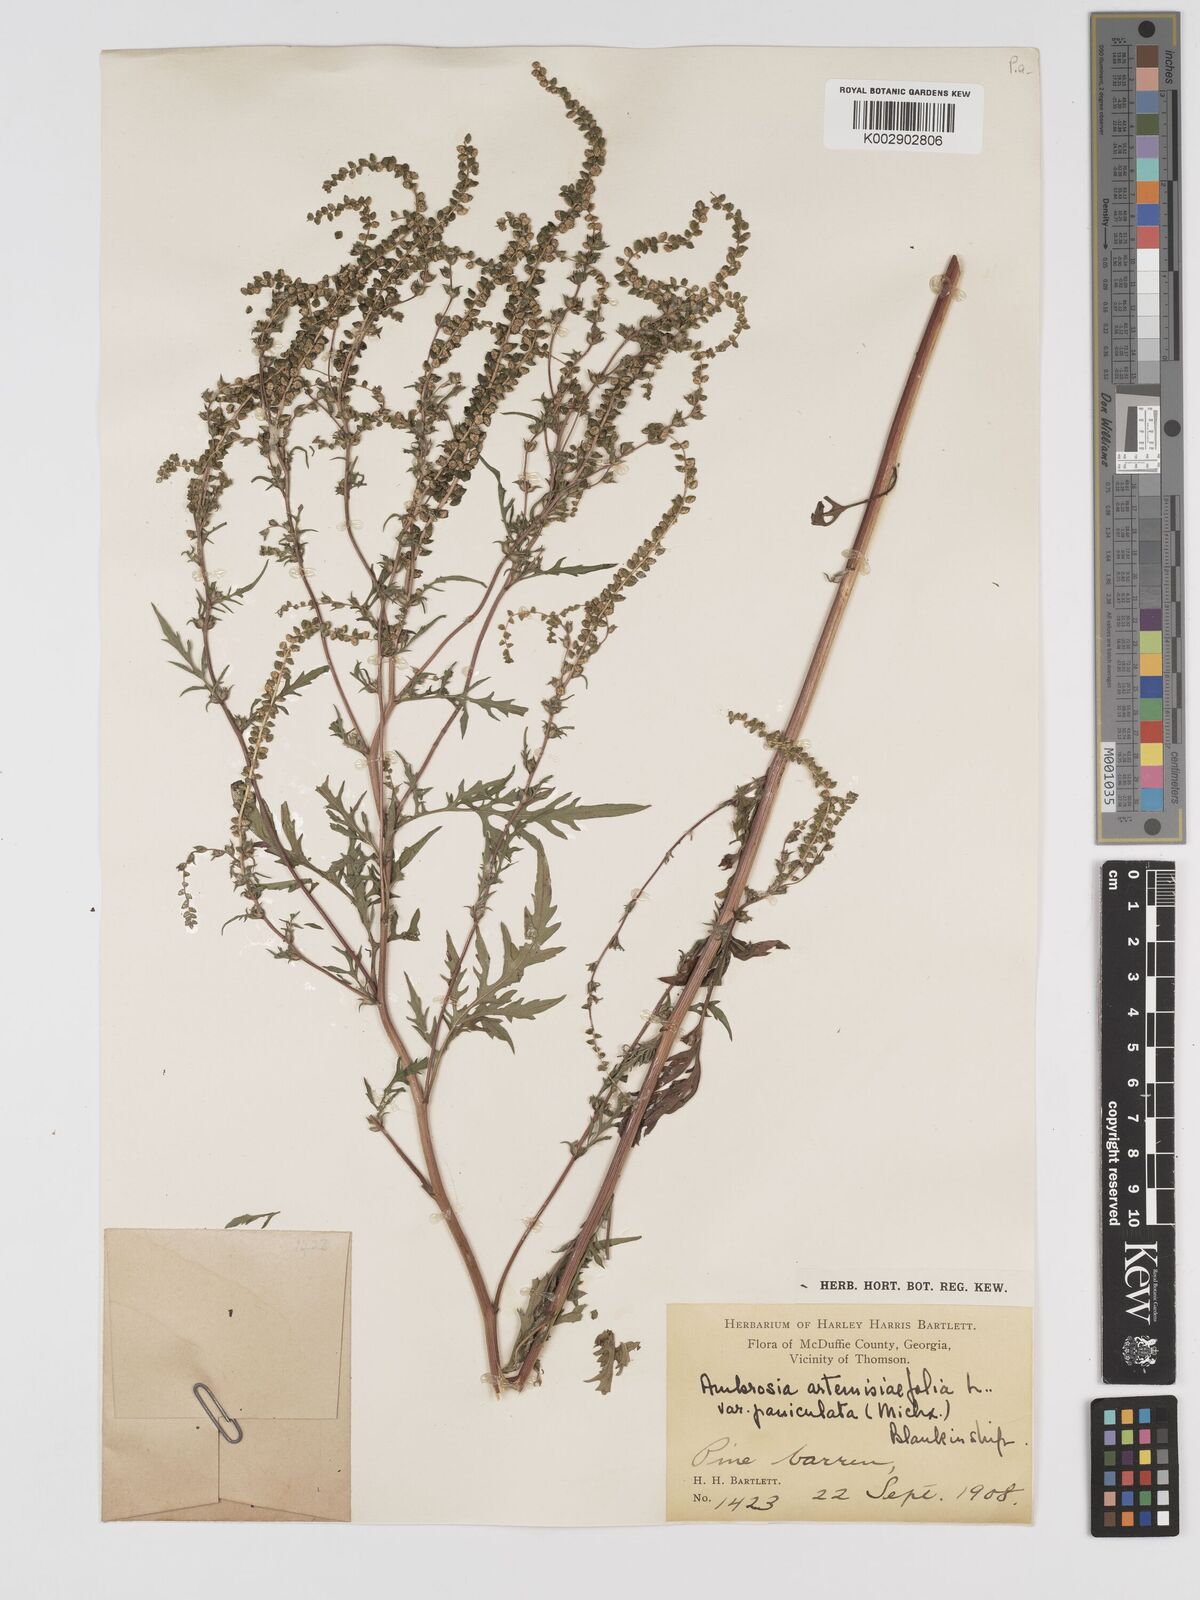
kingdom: Plantae
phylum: Tracheophyta
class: Magnoliopsida
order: Asterales
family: Asteraceae
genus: Ambrosia
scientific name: Ambrosia artemisiifolia
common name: Annual ragweed
